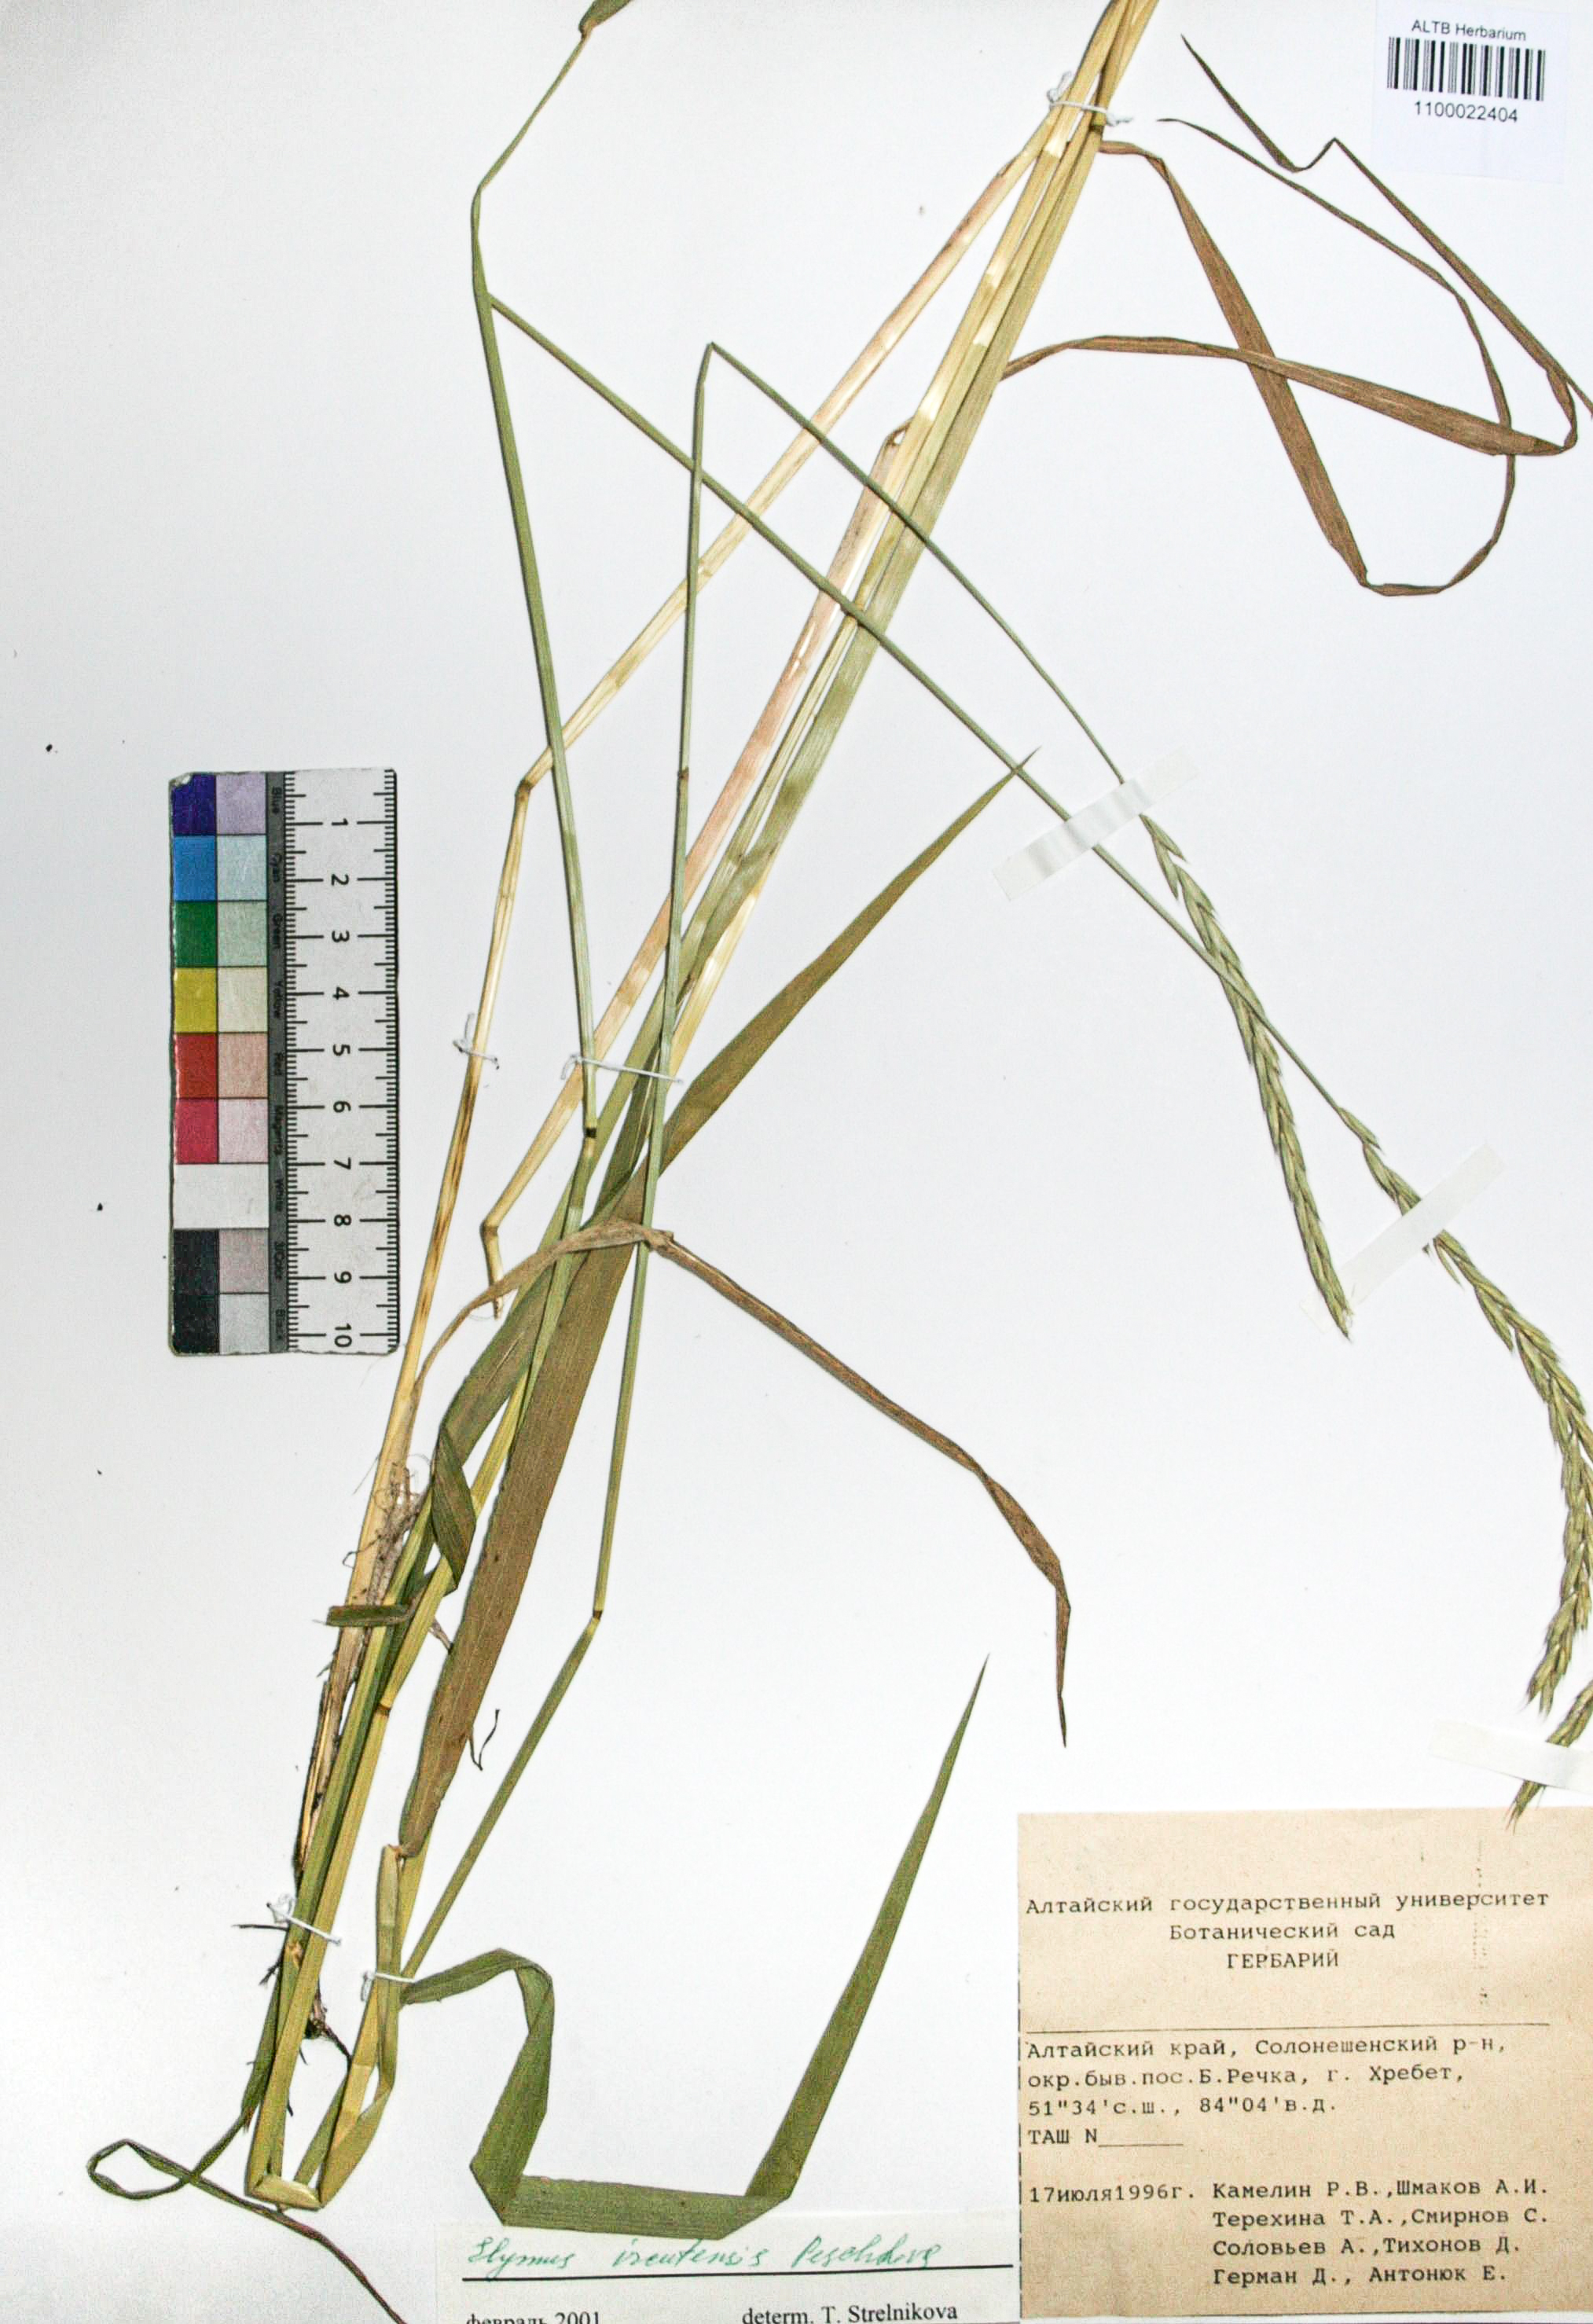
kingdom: Plantae
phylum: Tracheophyta
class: Liliopsida
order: Poales
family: Poaceae
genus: Elymus
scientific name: Elymus mutabilis
